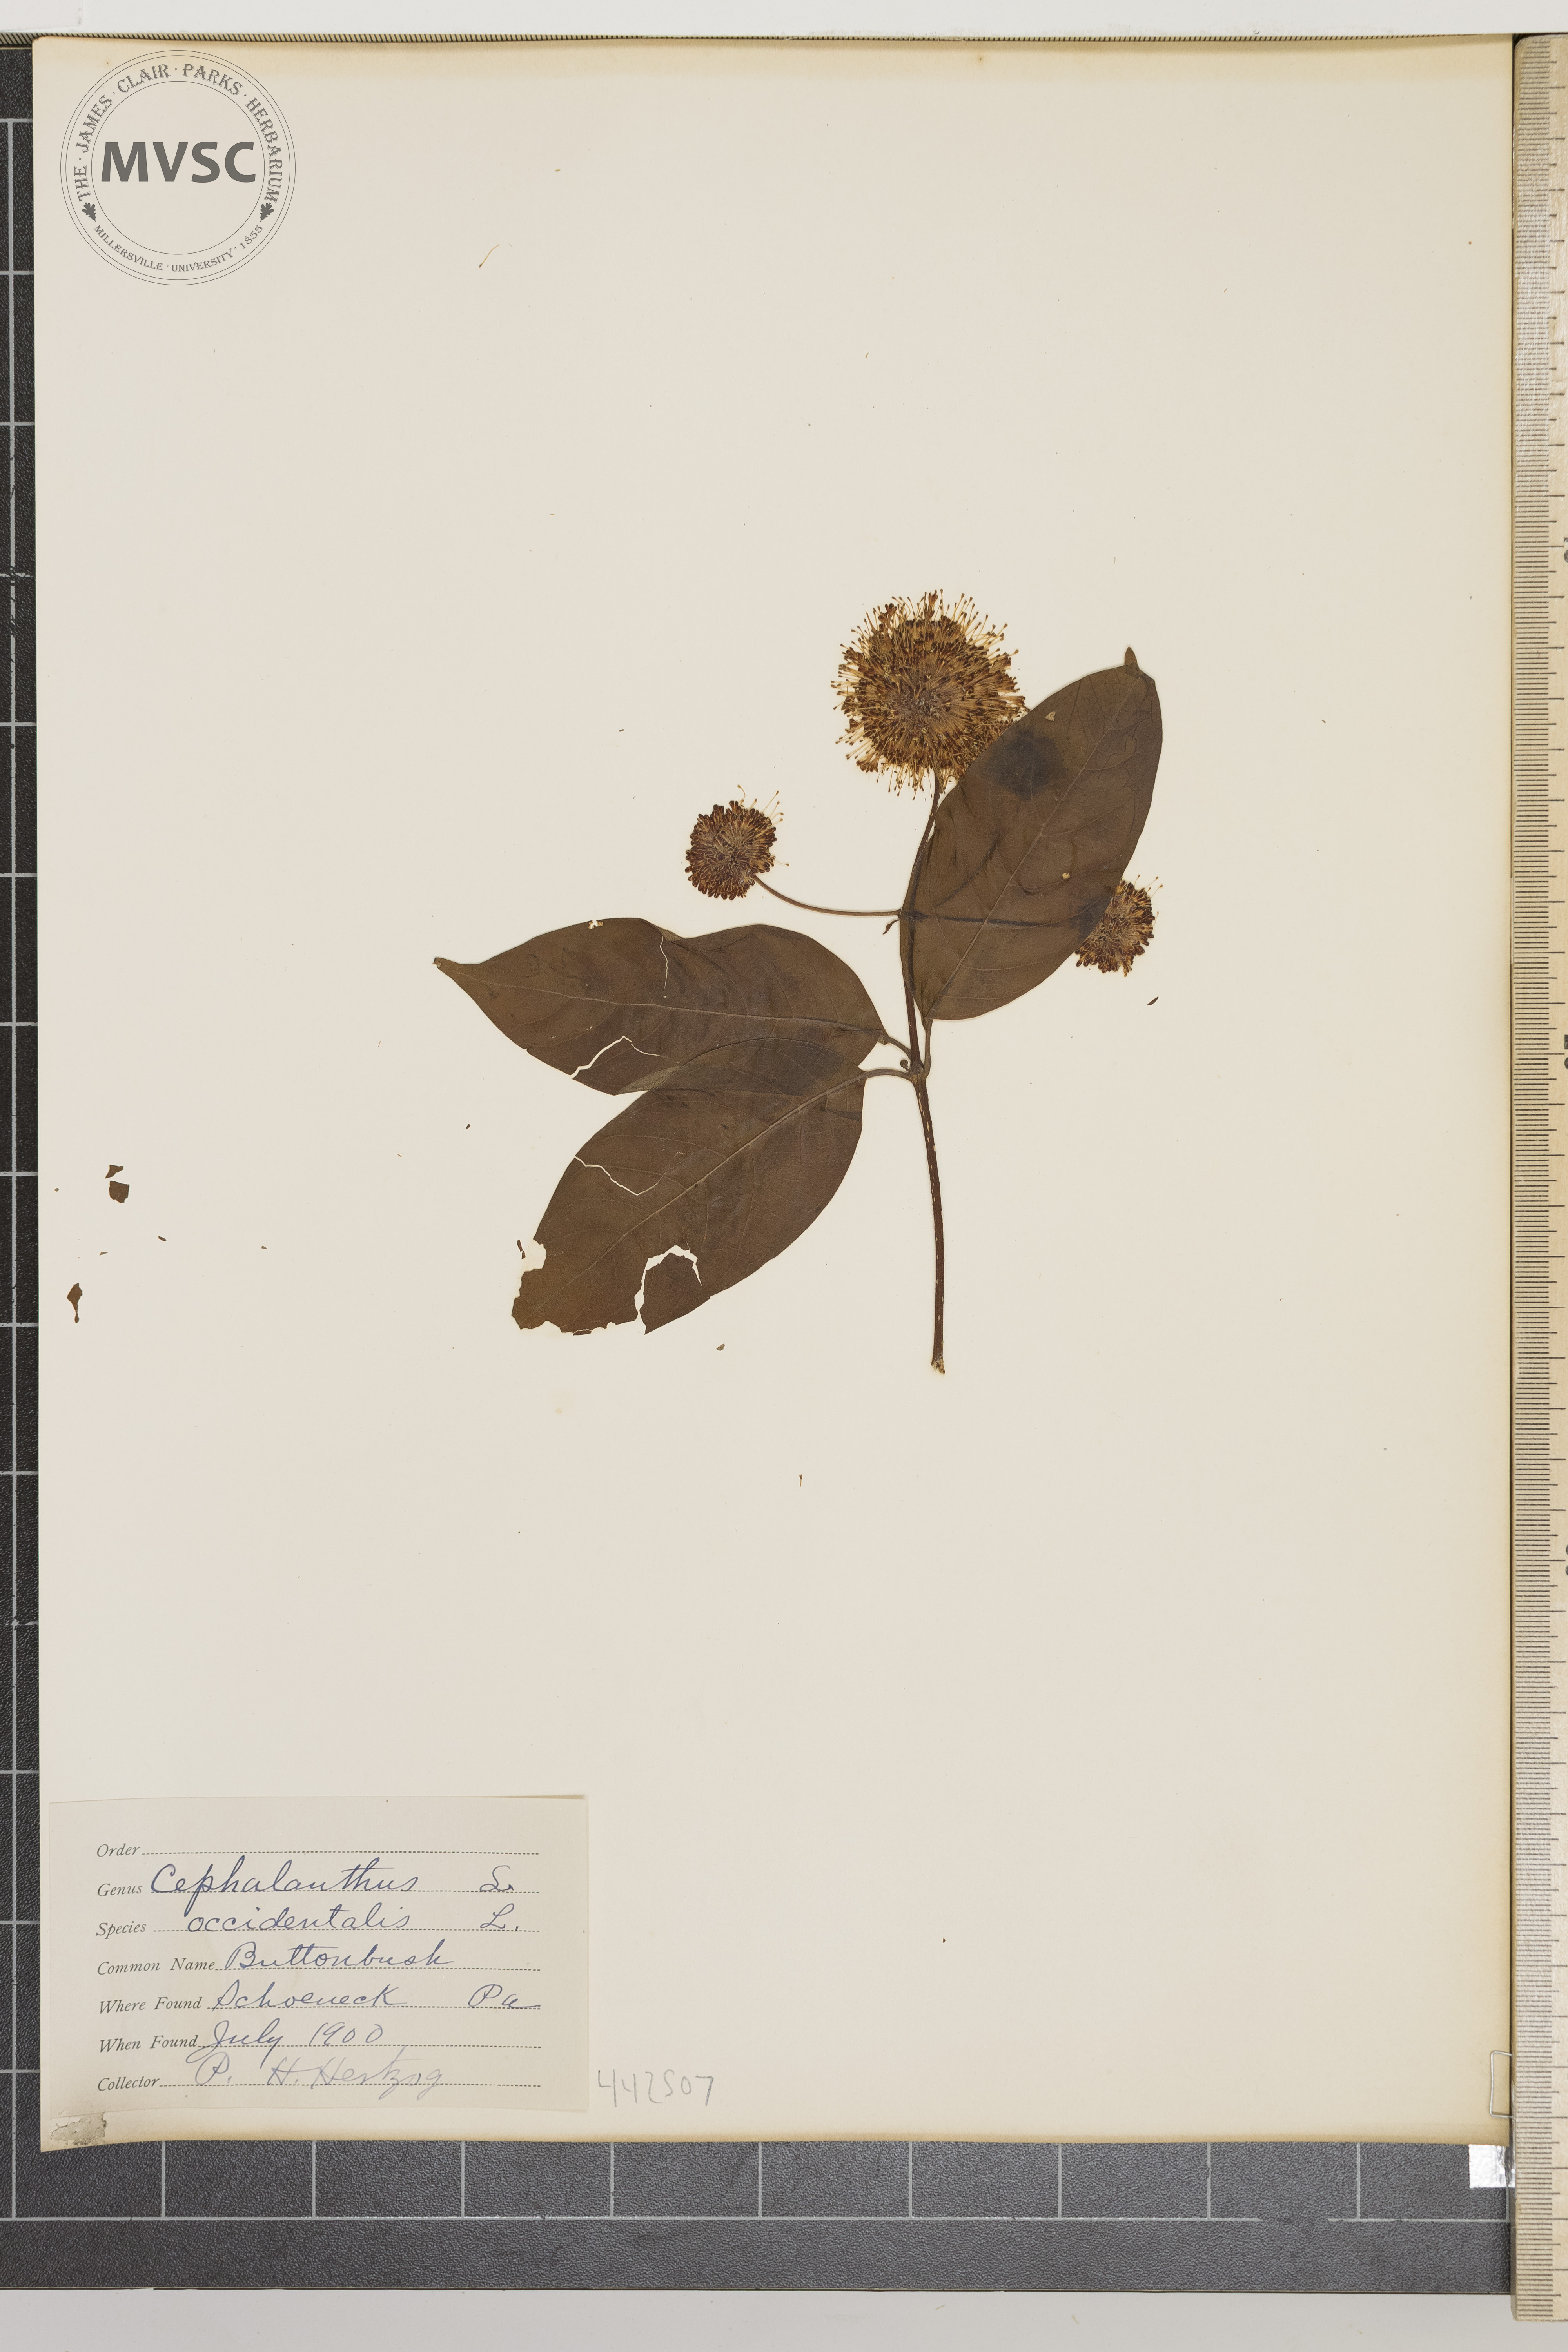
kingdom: Plantae
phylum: Tracheophyta
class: Magnoliopsida
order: Gentianales
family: Rubiaceae
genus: Cephalanthus
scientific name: Cephalanthus occidentalis
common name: Buttonbush
